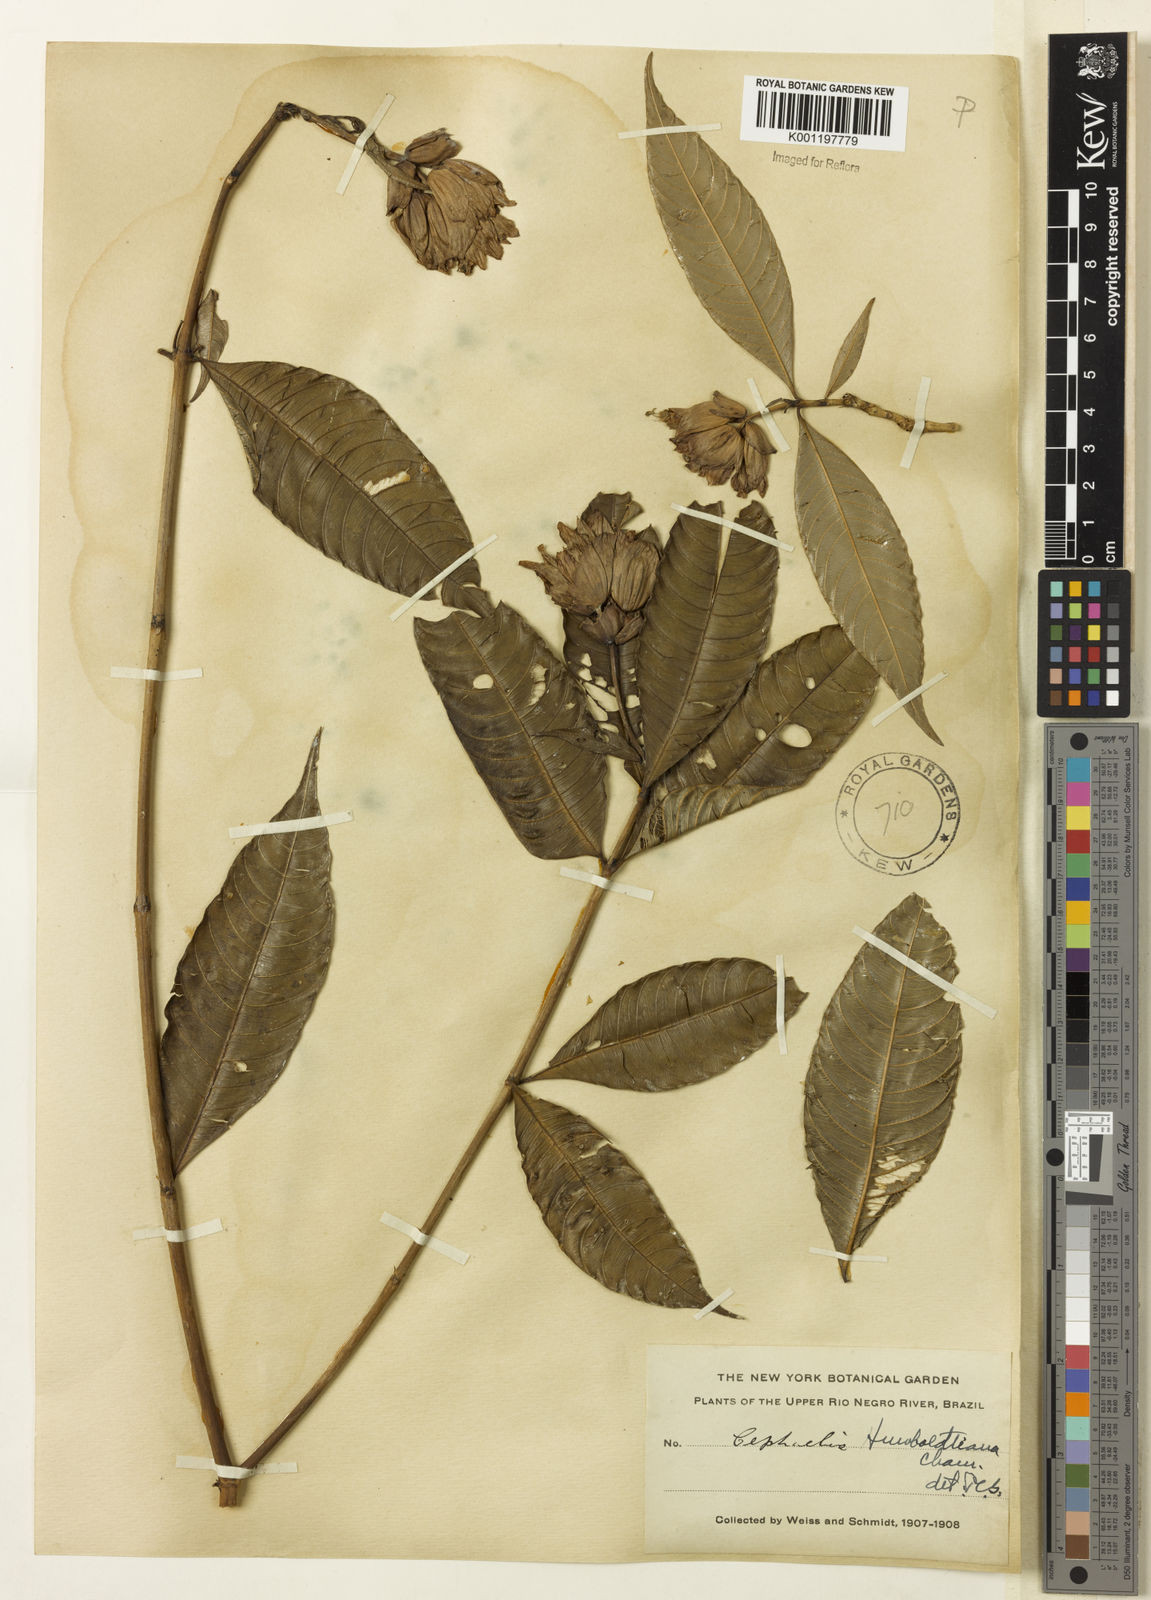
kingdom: Plantae
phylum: Tracheophyta
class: Magnoliopsida
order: Gentianales
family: Rubiaceae
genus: Psychotria
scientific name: Psychotria
